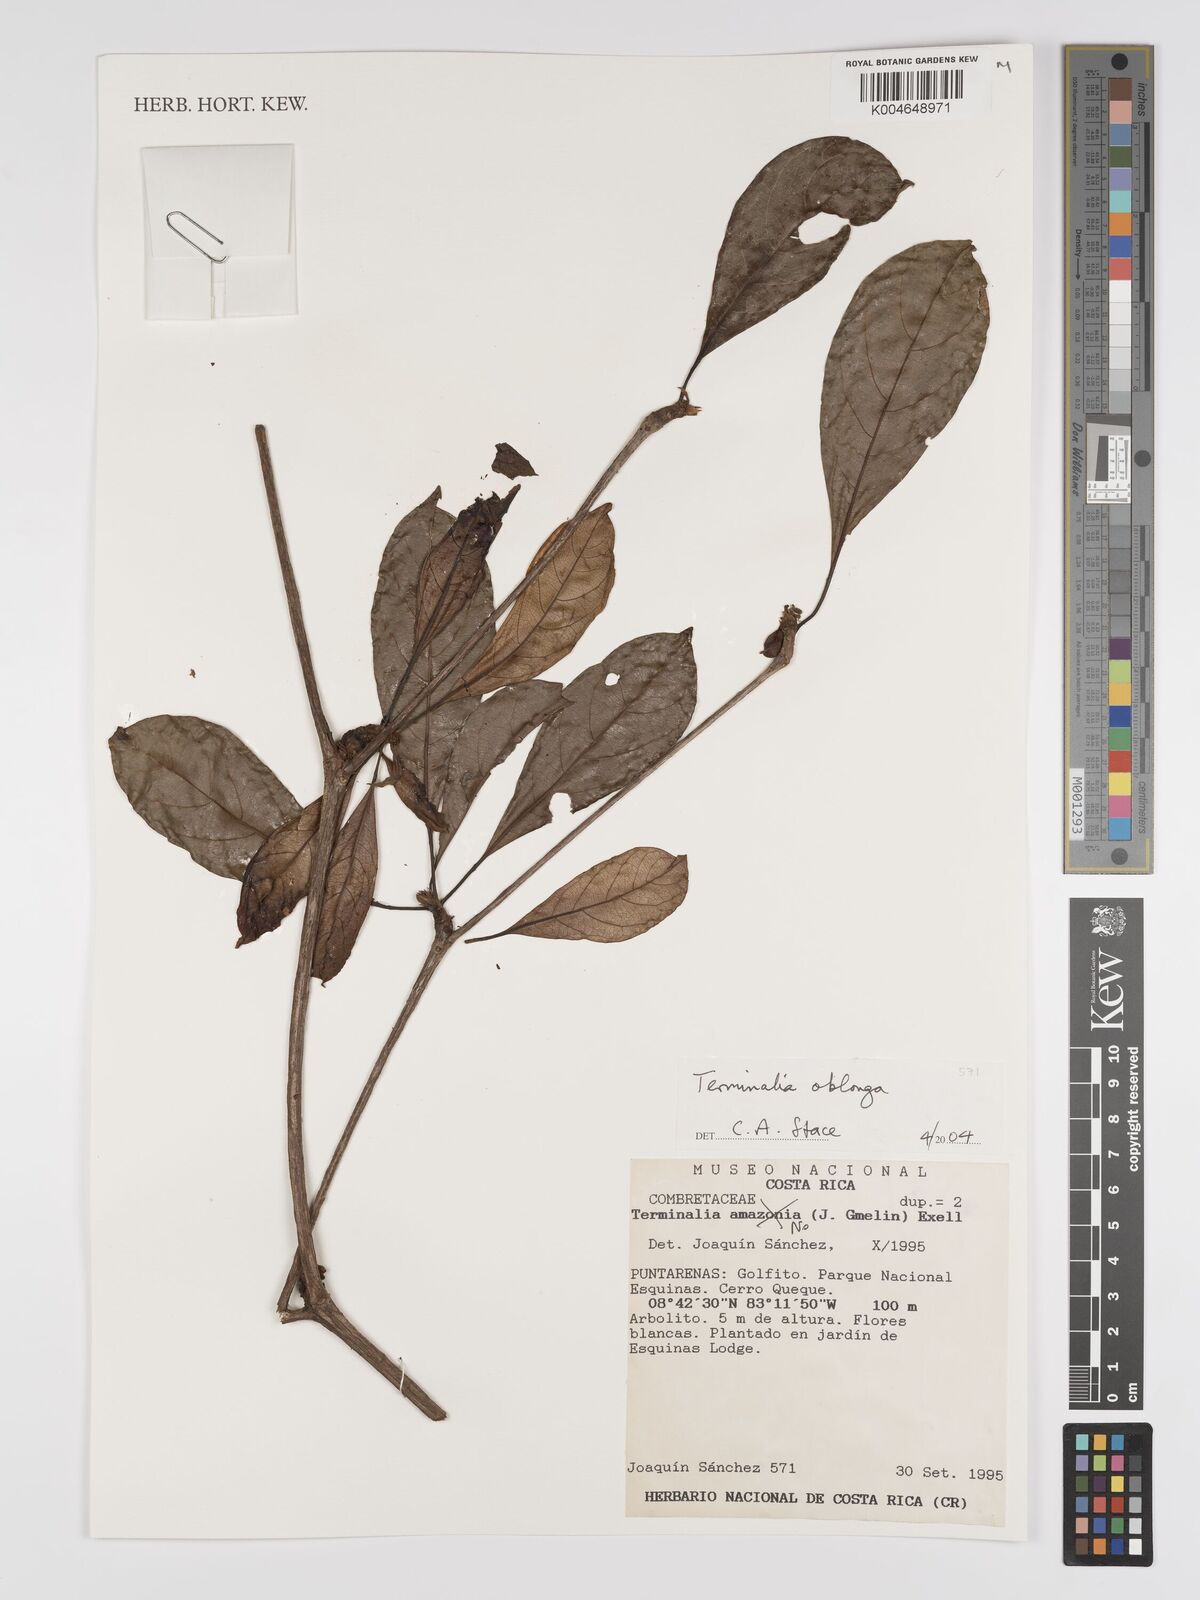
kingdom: Plantae
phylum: Tracheophyta
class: Magnoliopsida
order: Myrtales
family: Combretaceae
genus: Terminalia
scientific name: Terminalia oblonga
